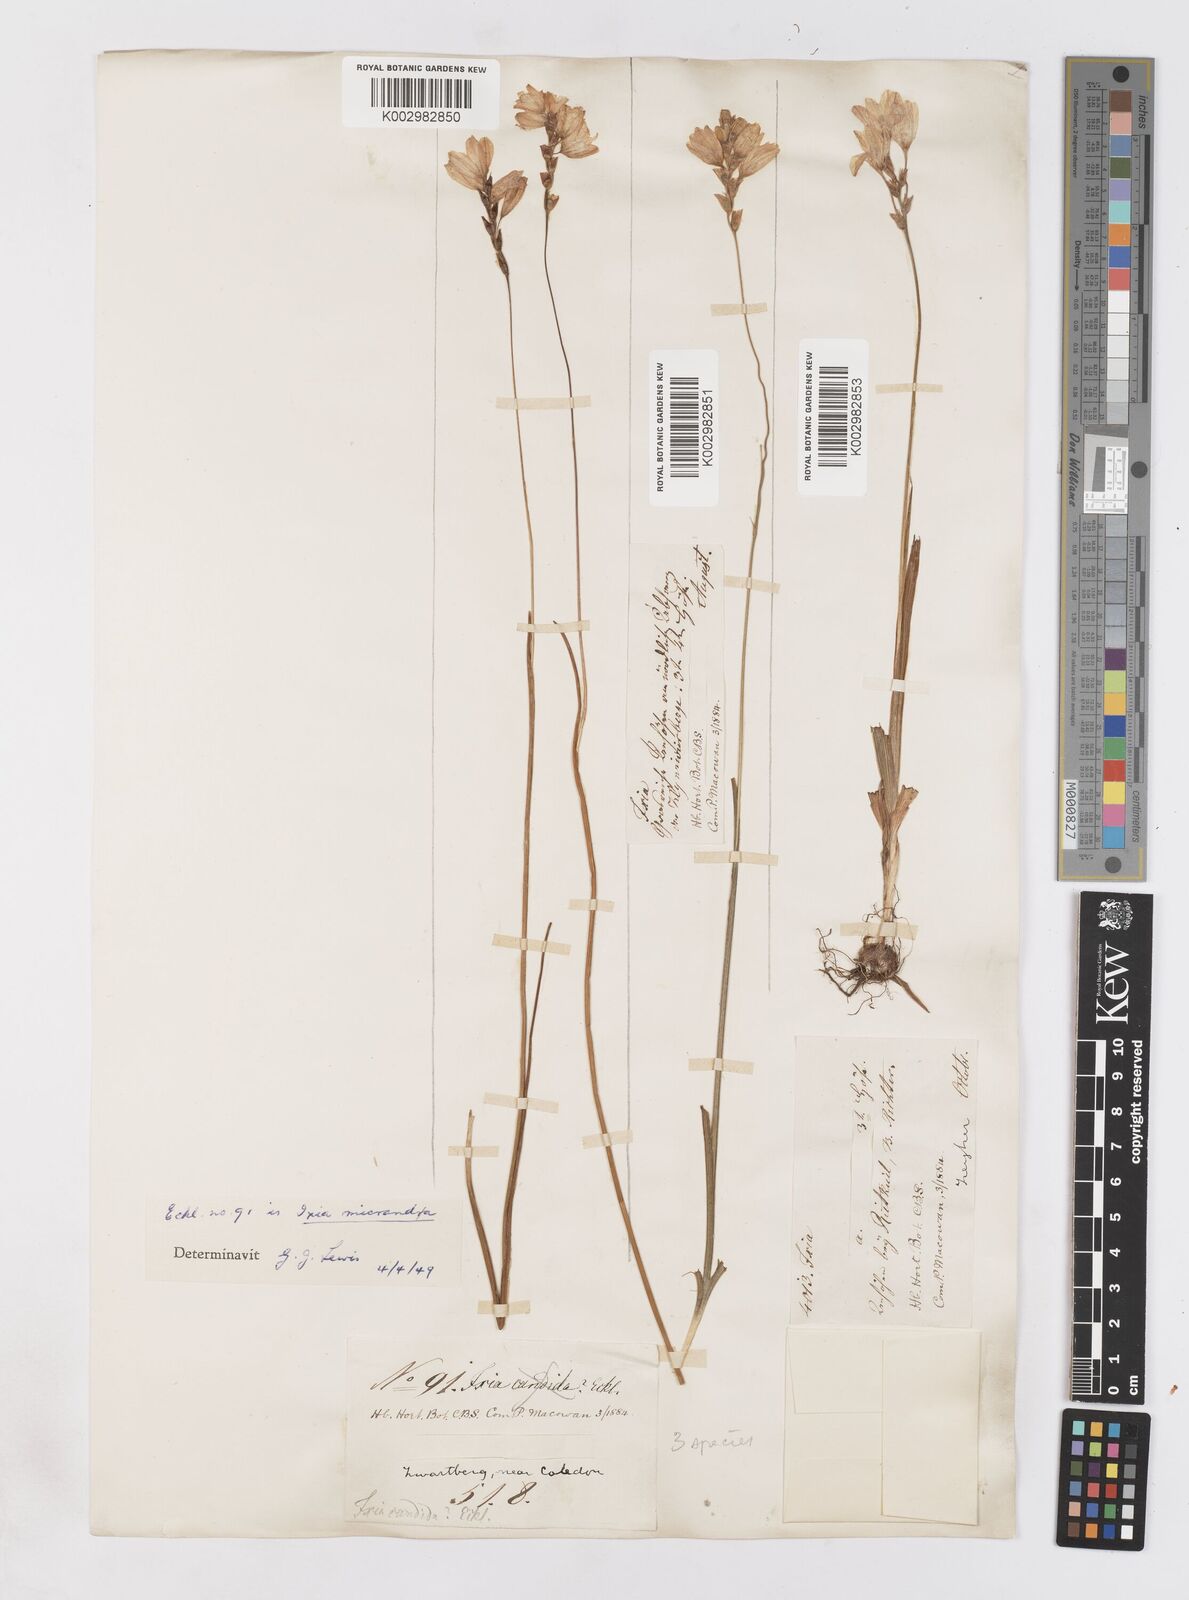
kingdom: Plantae
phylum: Tracheophyta
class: Liliopsida
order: Asparagales
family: Iridaceae
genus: Ixia
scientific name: Ixia micrandra
